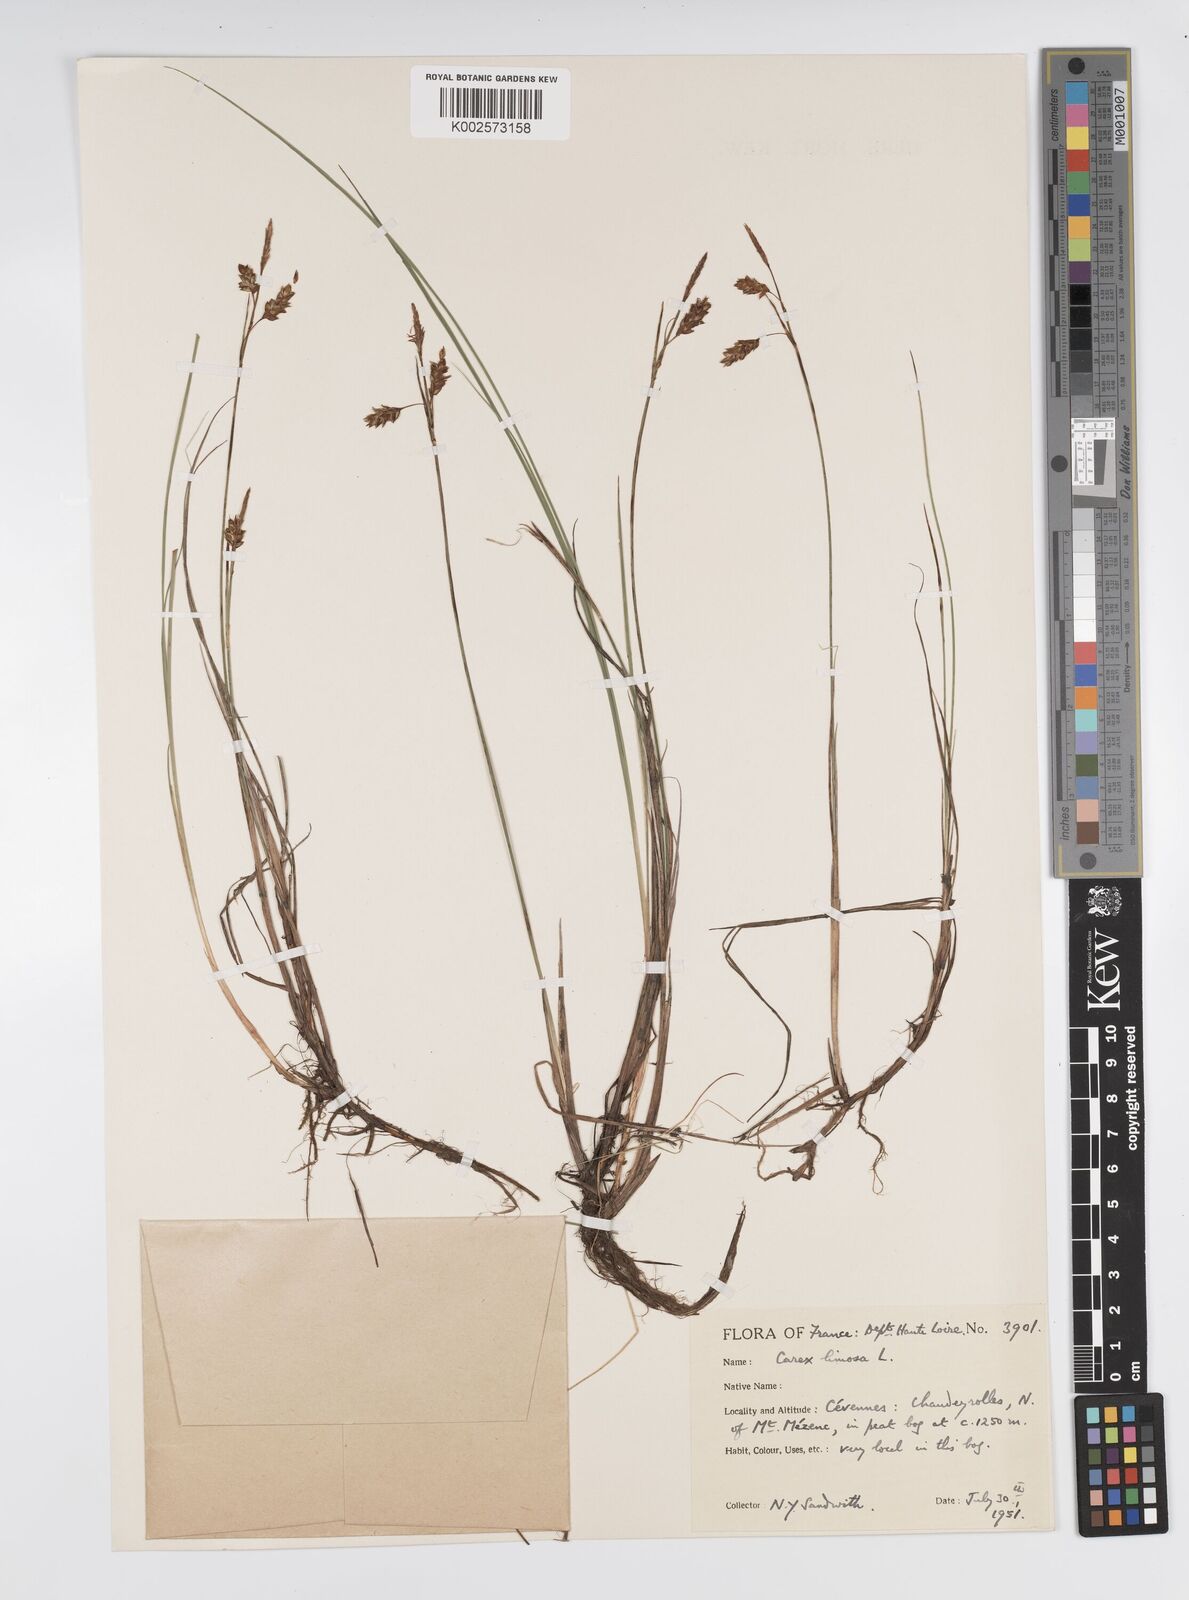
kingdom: Plantae
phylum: Tracheophyta
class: Liliopsida
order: Poales
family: Cyperaceae
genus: Carex
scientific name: Carex limosa
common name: Bog sedge
